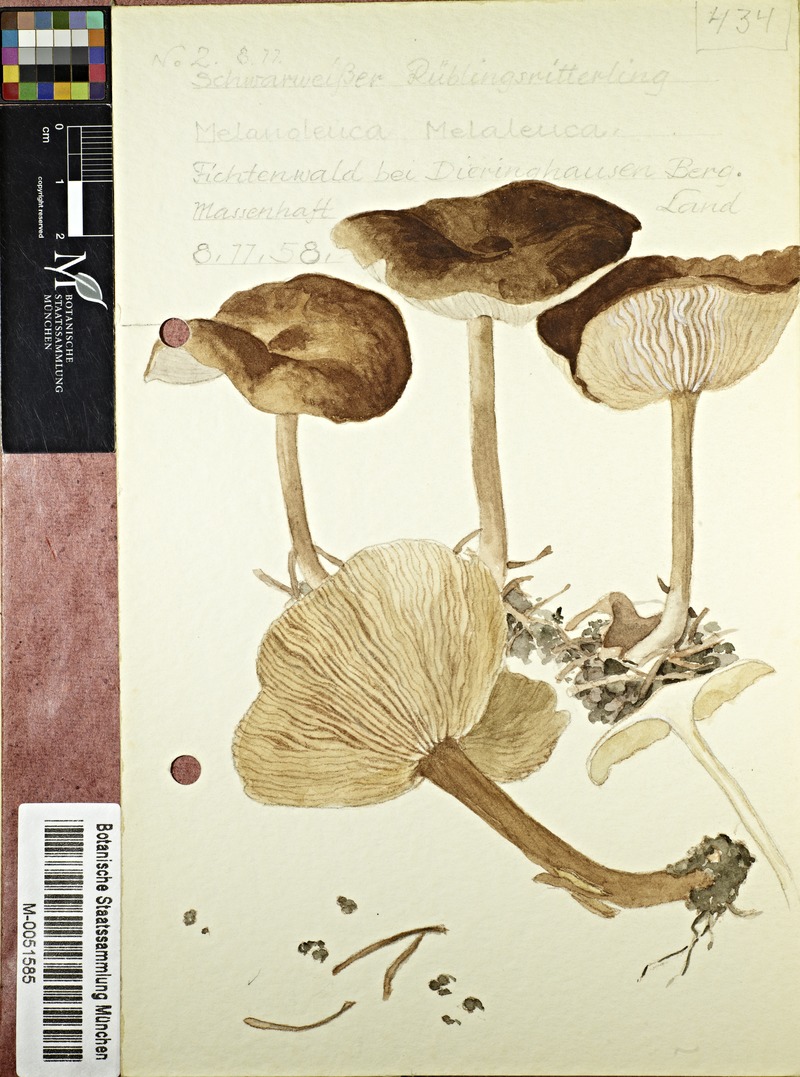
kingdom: Fungi
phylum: Basidiomycota
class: Agaricomycetes
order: Agaricales
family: Tricholomataceae
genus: Melanoleuca
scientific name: Melanoleuca melaleuca
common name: Bald cavalier
